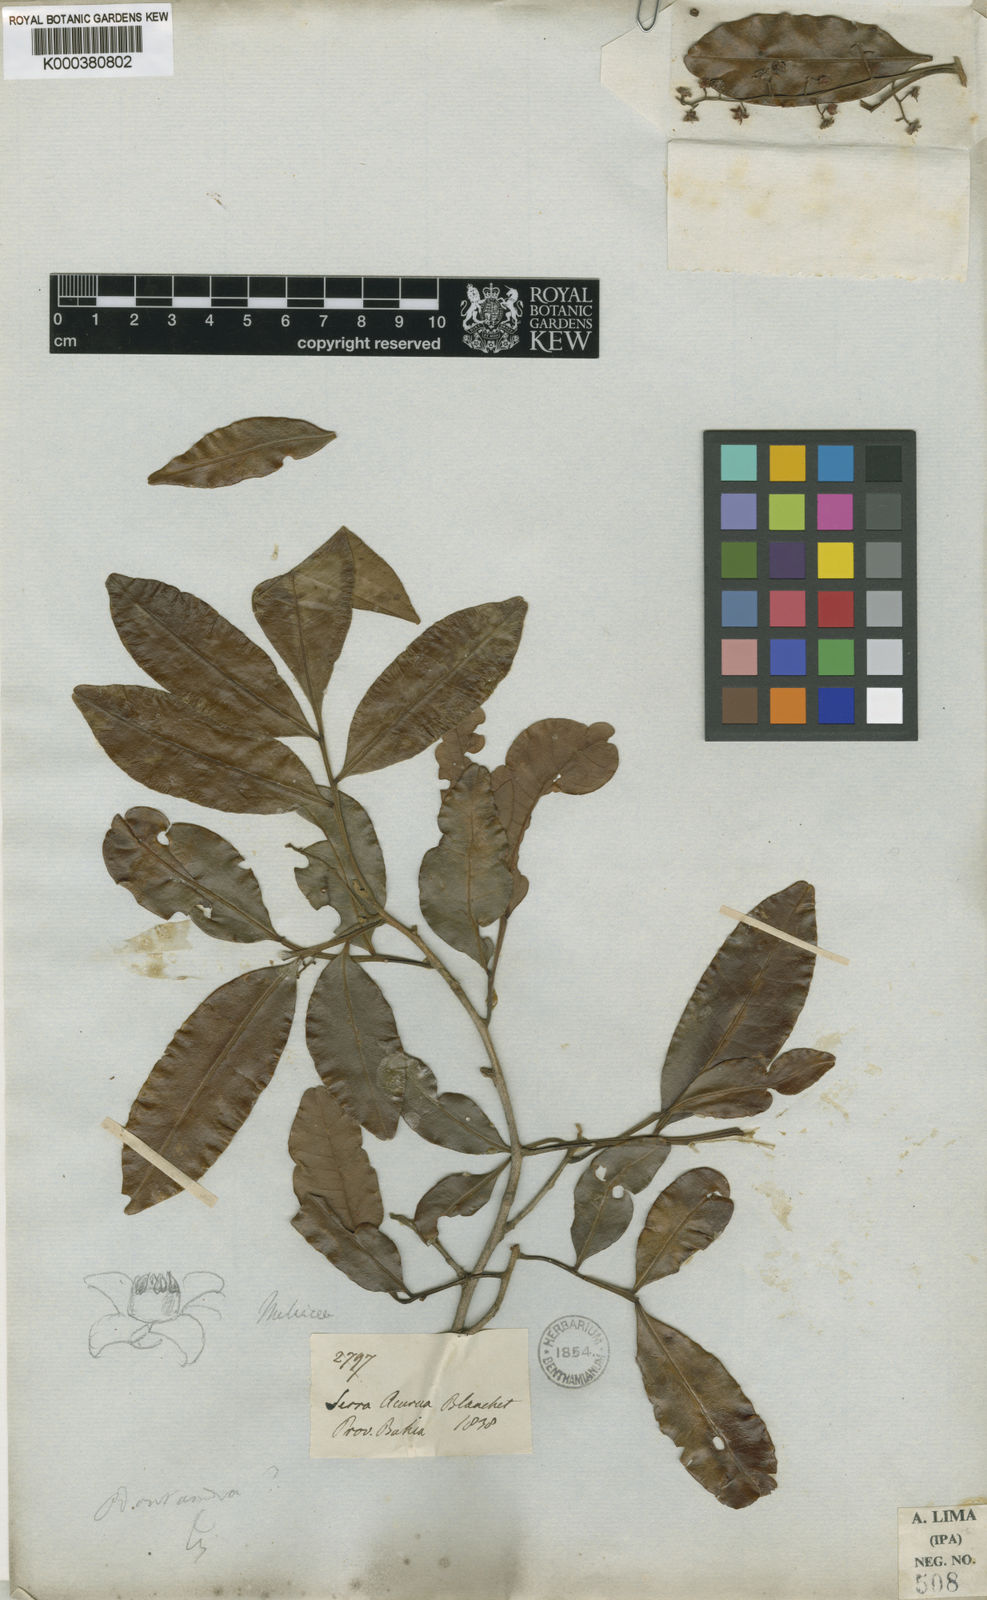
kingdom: Plantae
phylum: Tracheophyta
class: Magnoliopsida
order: Sapindales
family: Meliaceae
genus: Trichilia
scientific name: Trichilia emarginata
